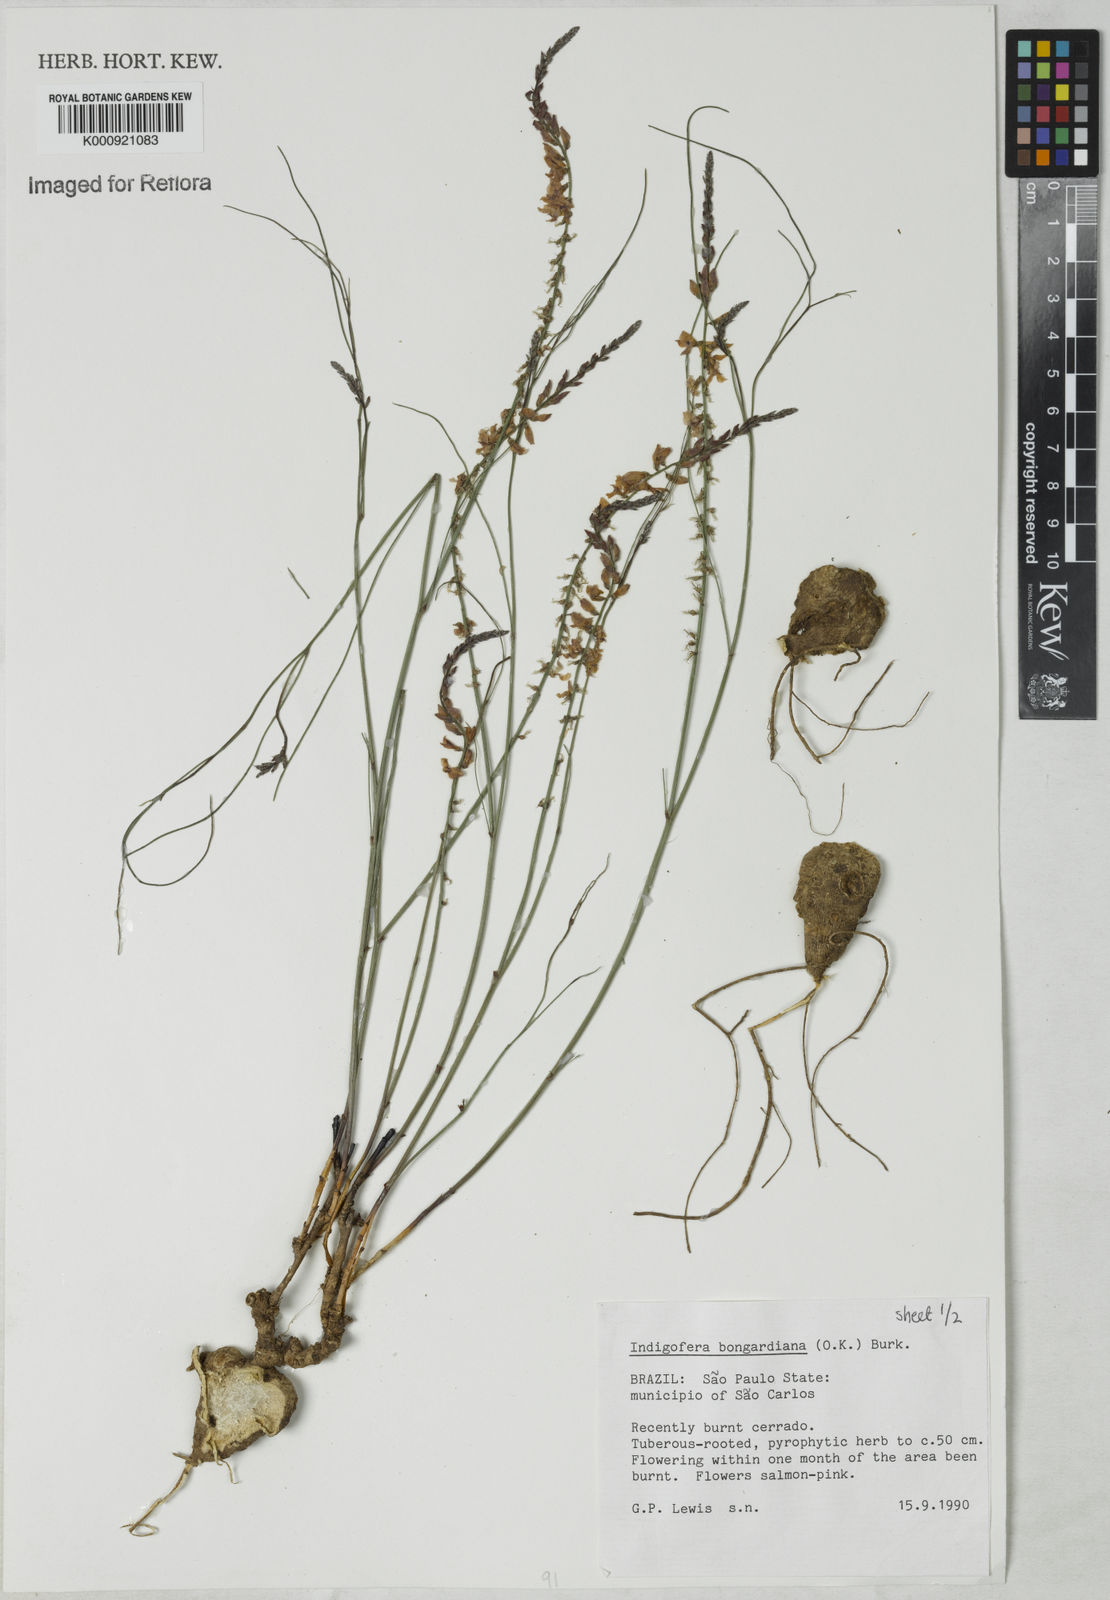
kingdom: Plantae
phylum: Tracheophyta
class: Magnoliopsida
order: Fabales
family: Fabaceae
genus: Indigofera
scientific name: Indigofera bongardiana
